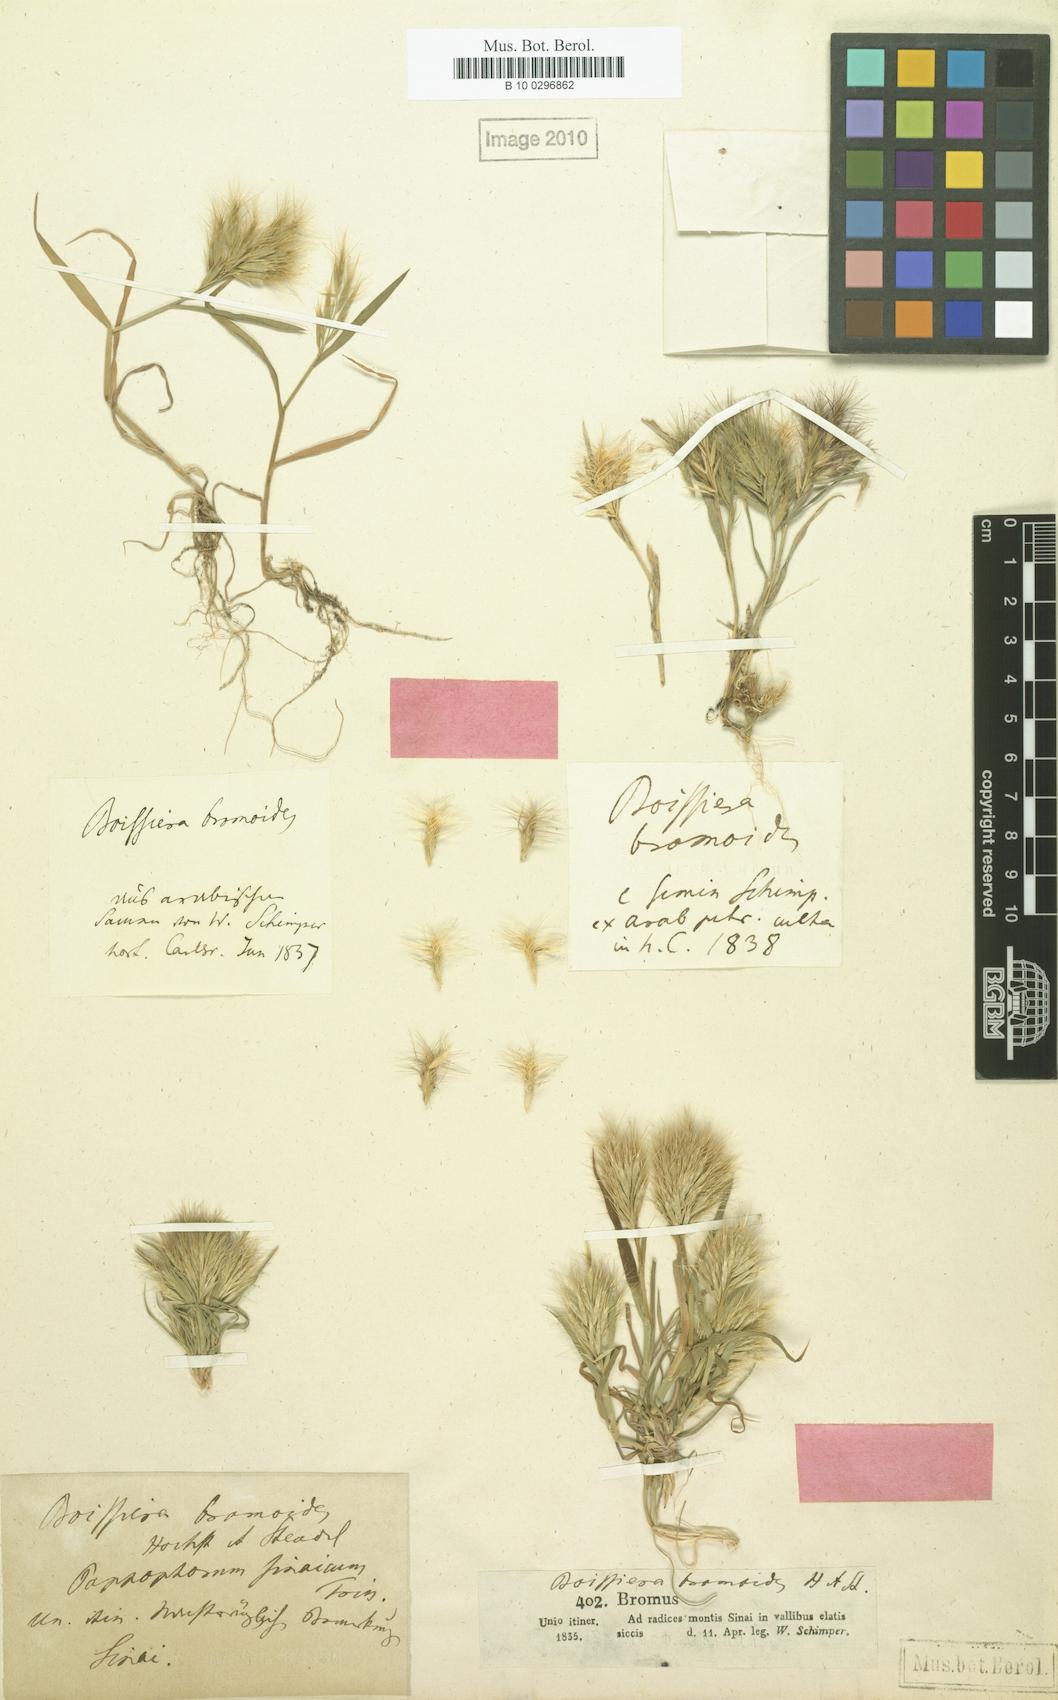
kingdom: Plantae
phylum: Tracheophyta
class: Liliopsida
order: Poales
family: Poaceae
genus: Bromus
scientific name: Bromus pumilio
